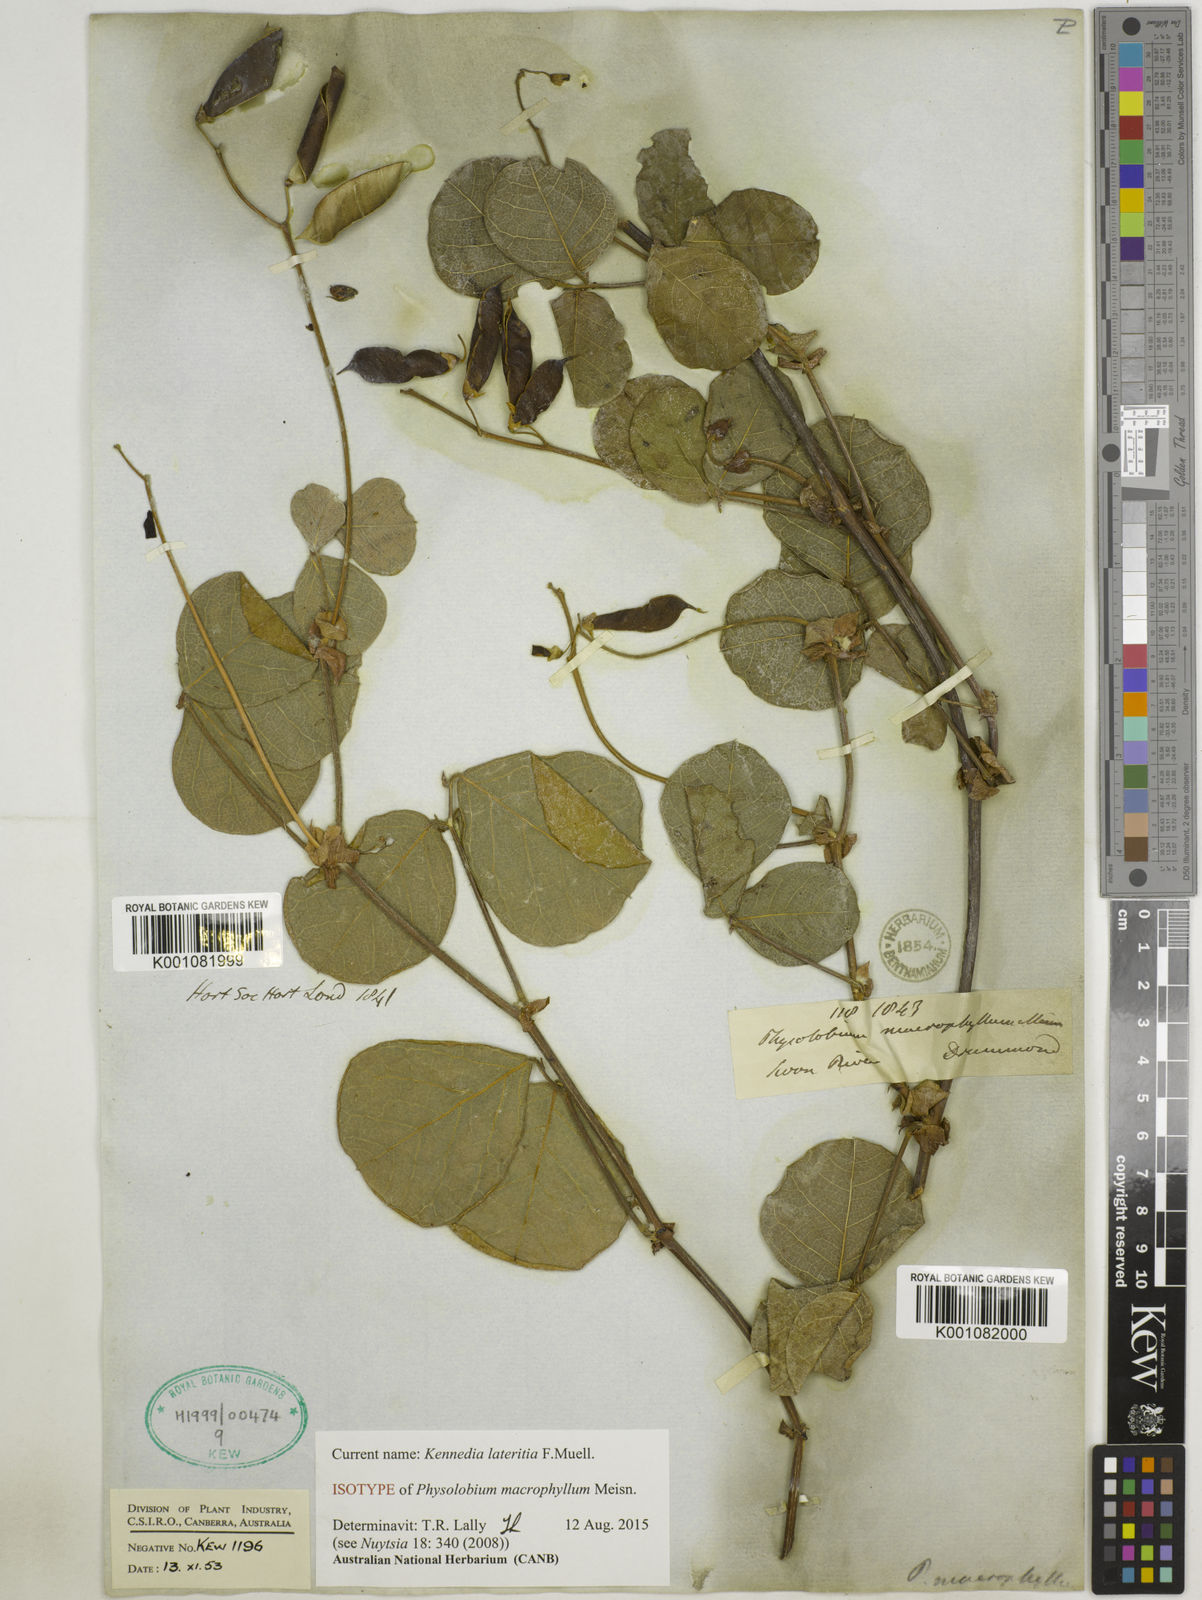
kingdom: Plantae
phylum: Tracheophyta
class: Magnoliopsida
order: Fabales
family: Fabaceae
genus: Kennedia
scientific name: Kennedia lateritia
